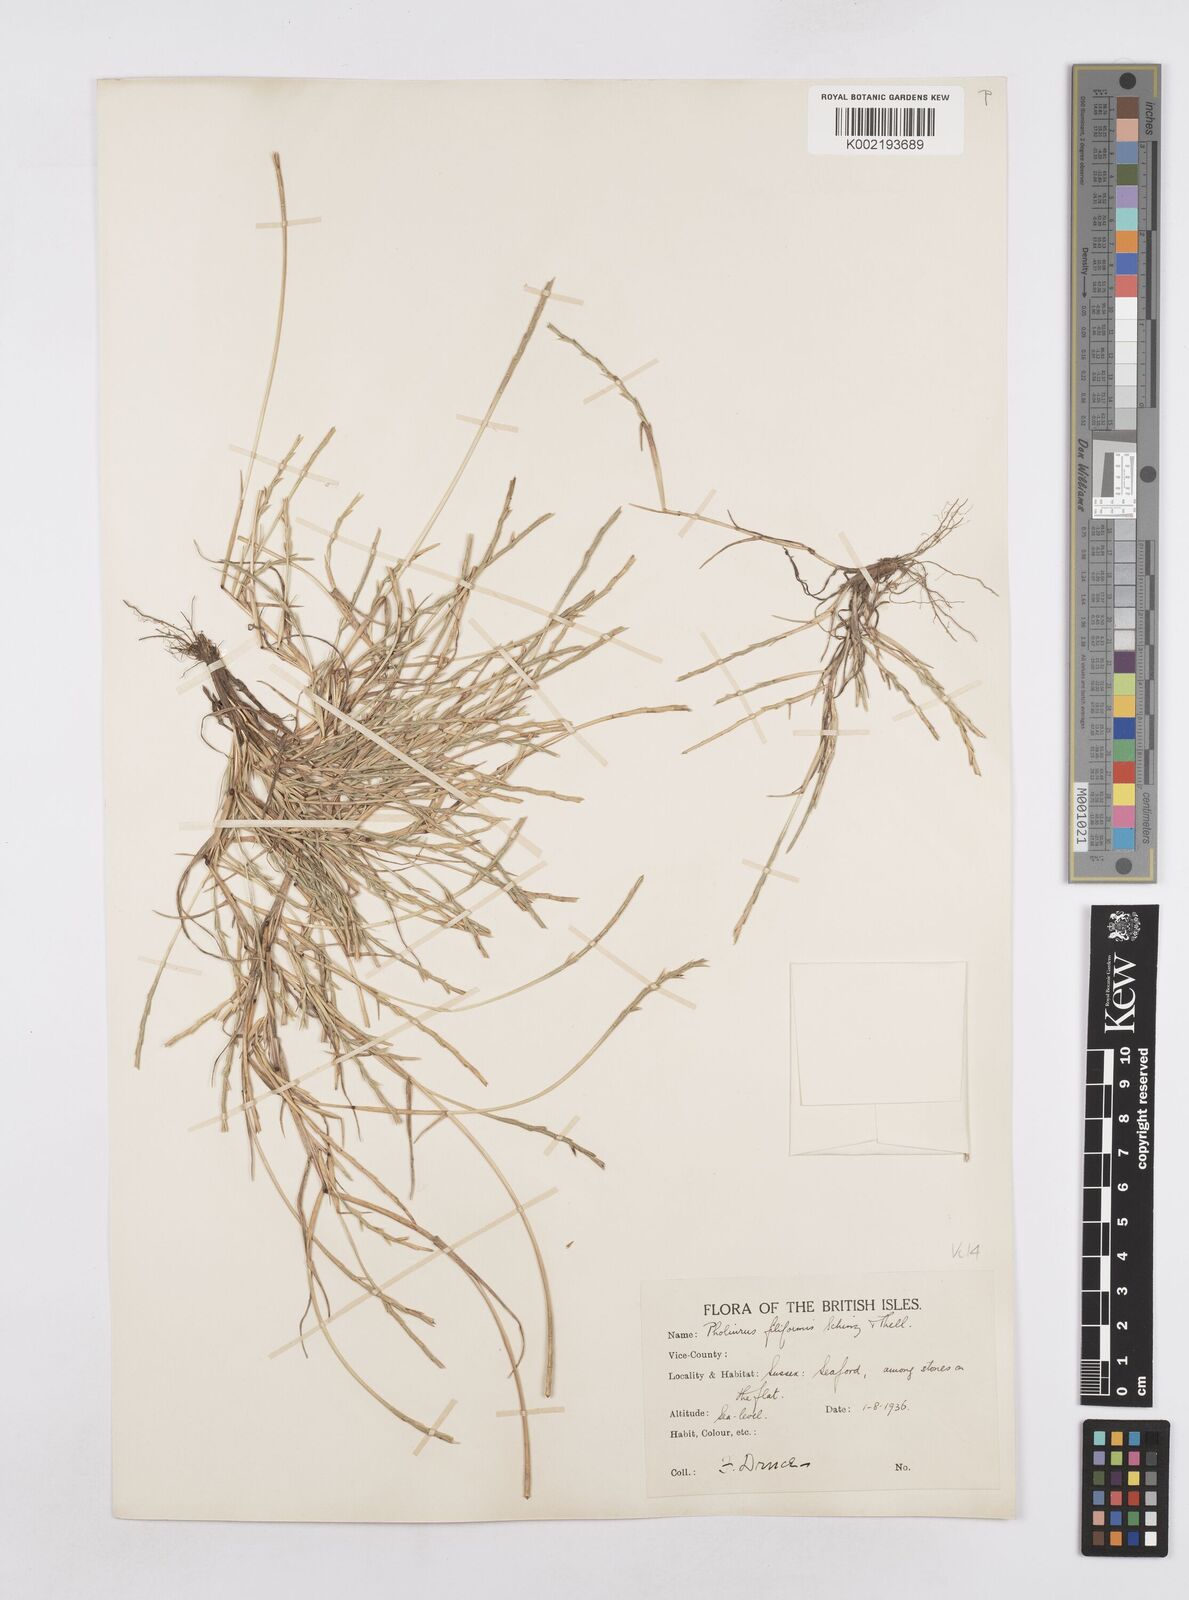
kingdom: Plantae
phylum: Tracheophyta
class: Liliopsida
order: Poales
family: Poaceae
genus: Parapholis
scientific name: Parapholis strigosa
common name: Hard-grass
